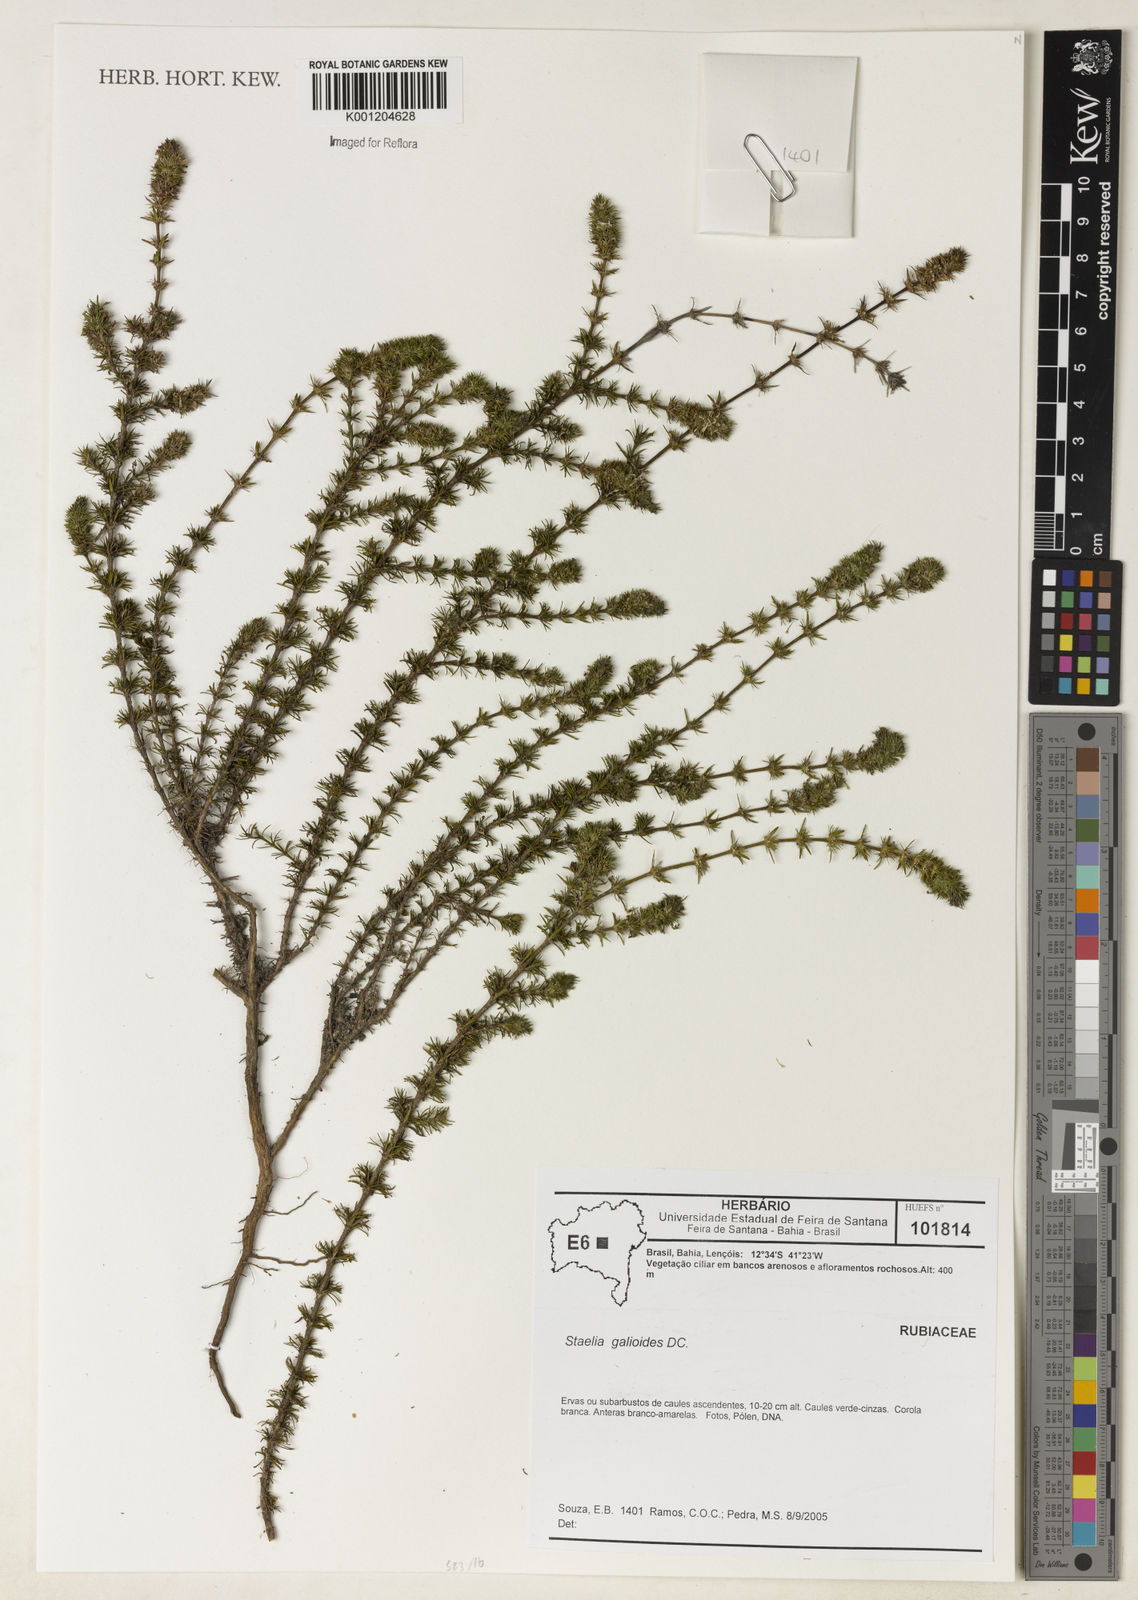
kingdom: Plantae
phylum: Tracheophyta
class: Magnoliopsida
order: Gentianales
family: Rubiaceae
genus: Staelia
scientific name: Staelia galioides
